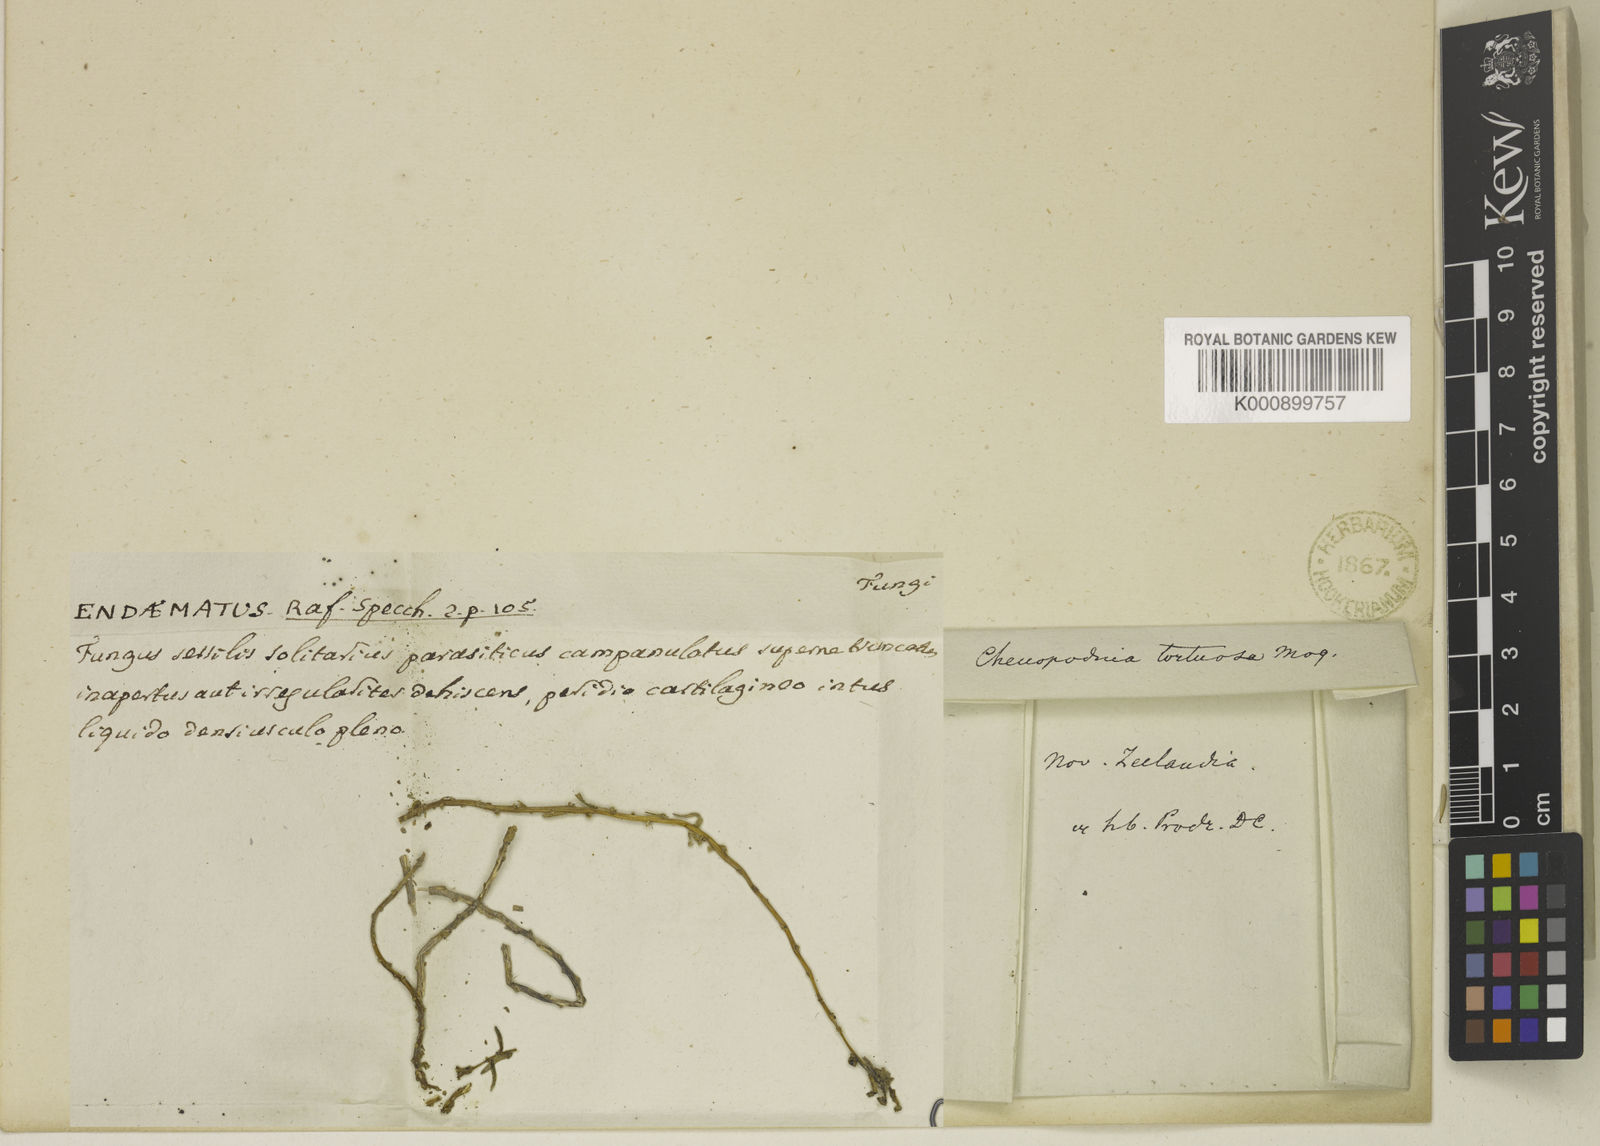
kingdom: Plantae
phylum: Tracheophyta
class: Magnoliopsida
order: Caryophyllales
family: Amaranthaceae
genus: Suaeda
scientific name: Suaeda maritima
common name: Annual sea-blite
